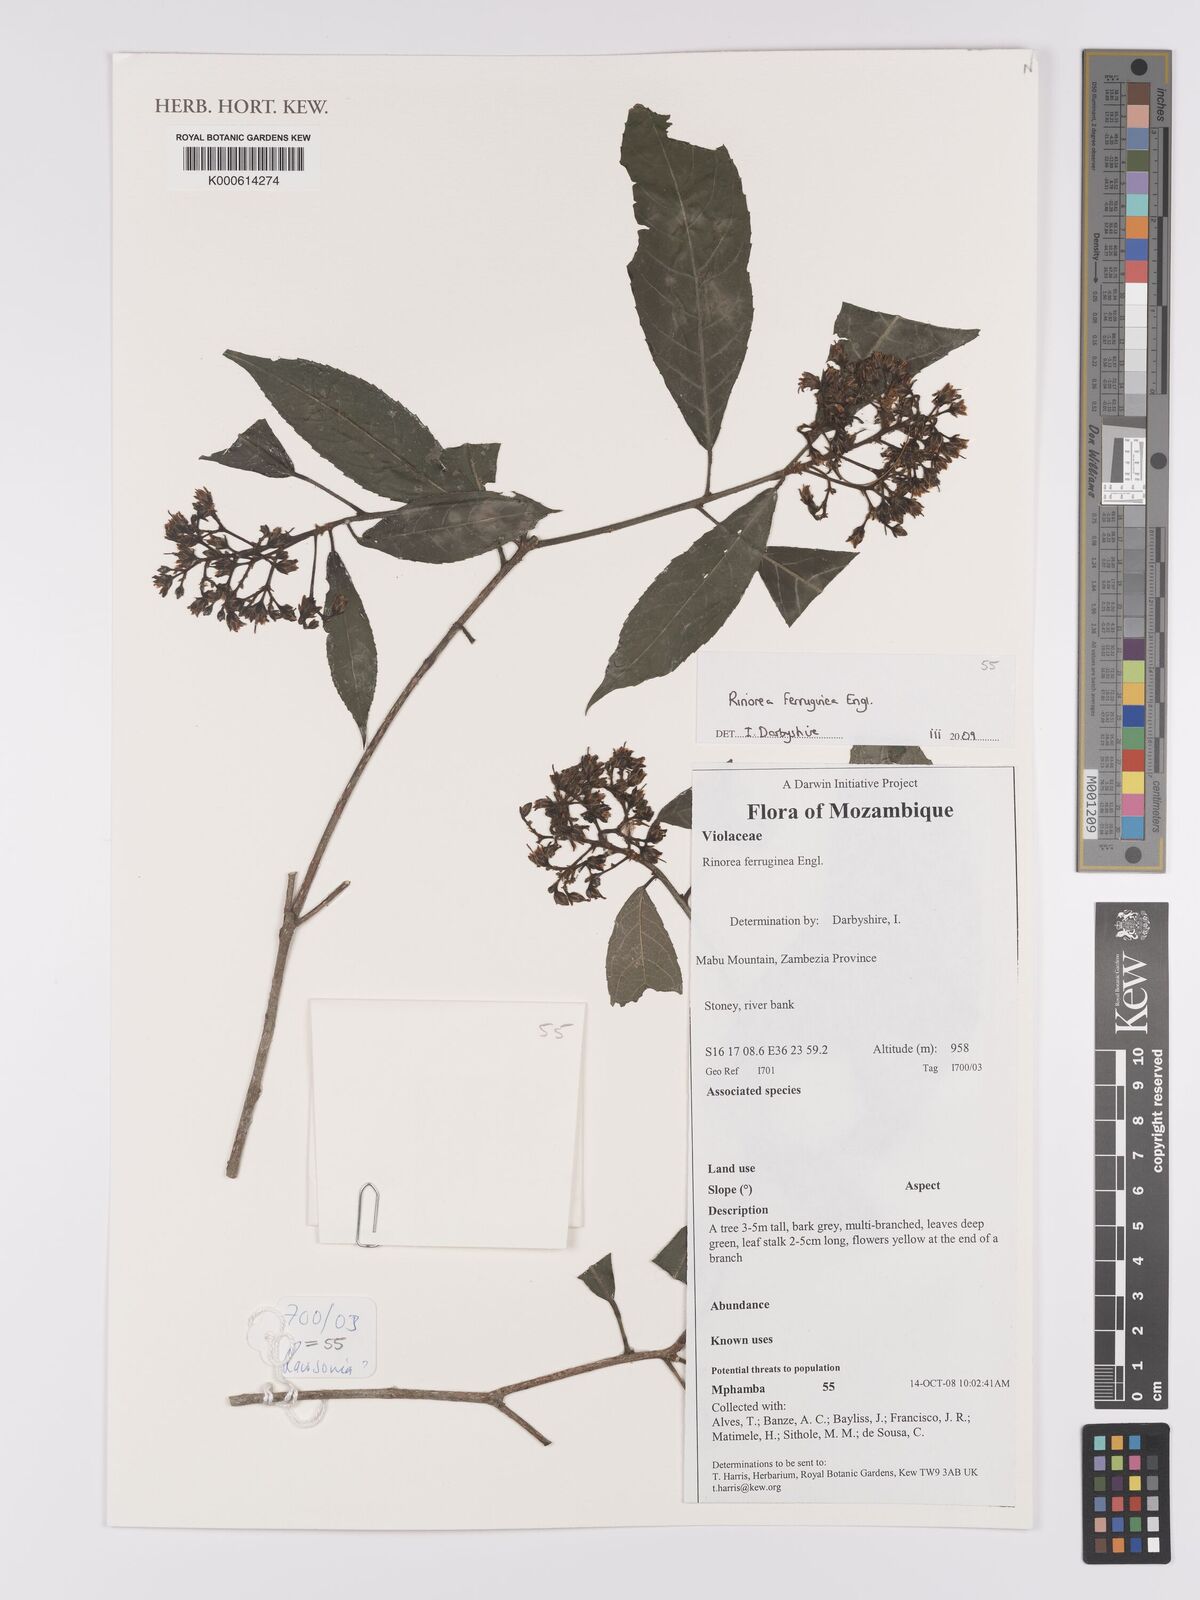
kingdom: Plantae
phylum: Tracheophyta
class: Magnoliopsida
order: Malpighiales
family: Violaceae
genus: Rinorea
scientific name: Rinorea ferruginea
